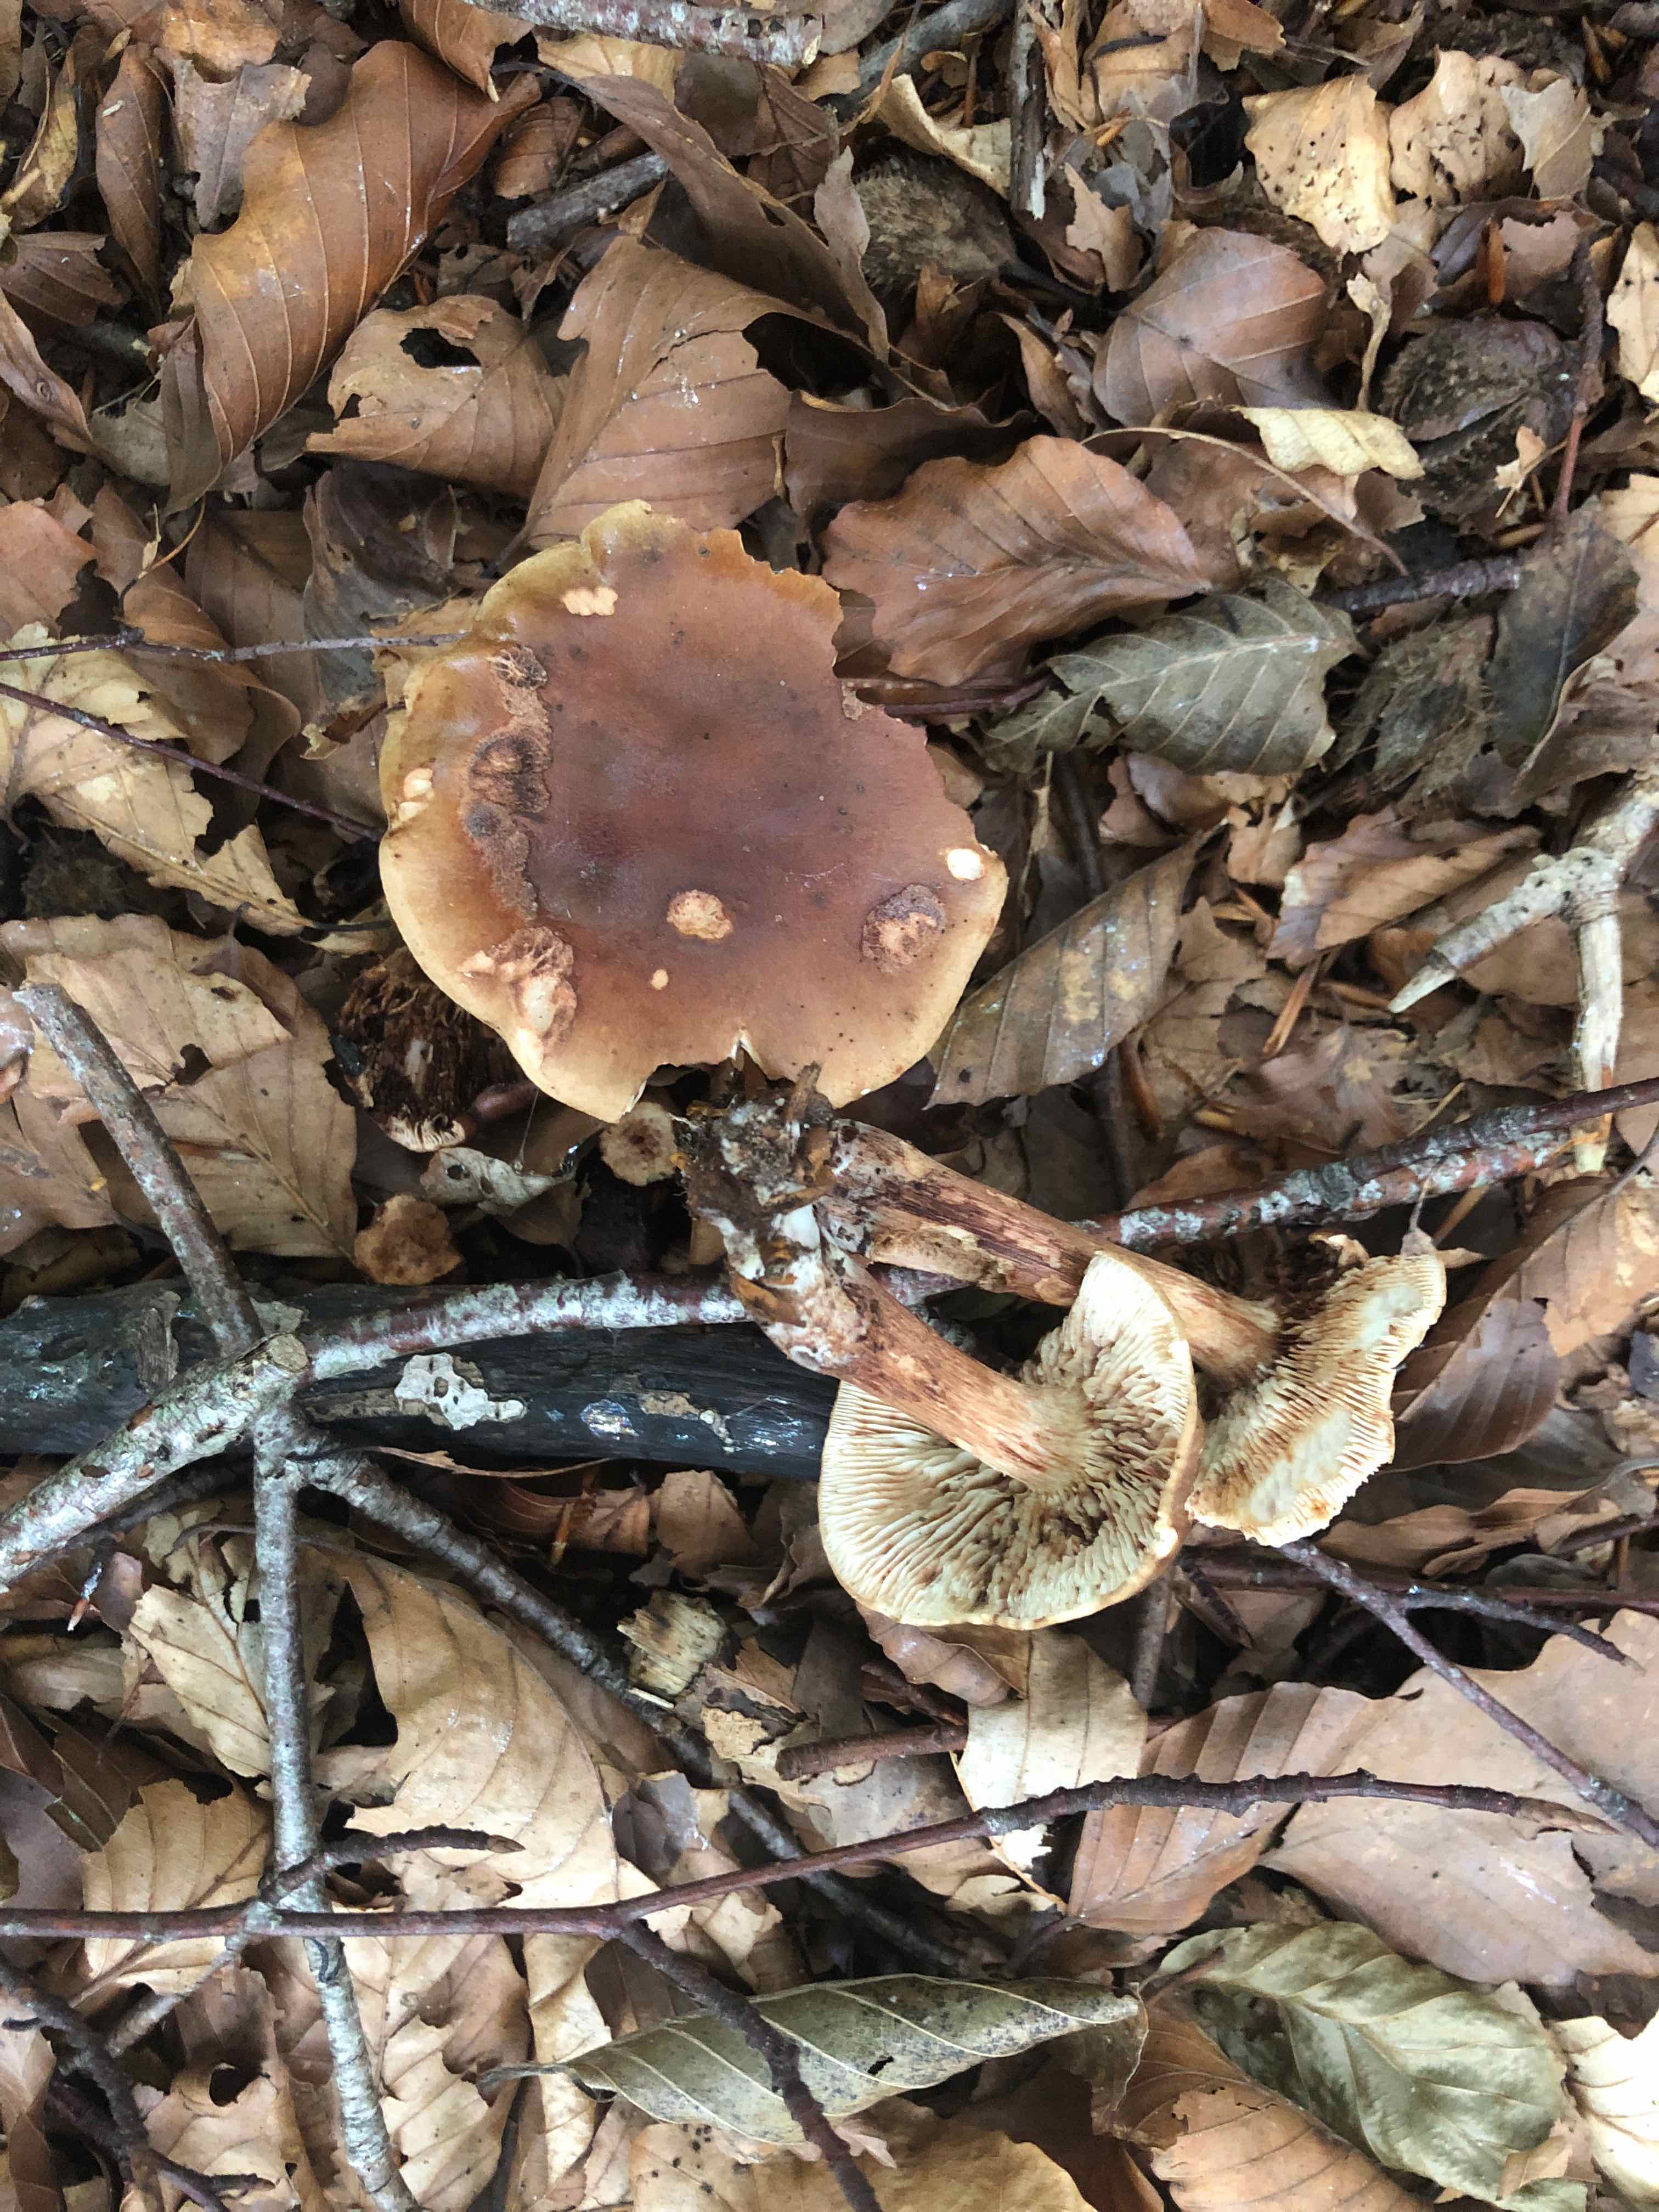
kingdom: Fungi
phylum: Basidiomycota
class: Agaricomycetes
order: Agaricales
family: Tricholomataceae
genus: Tricholoma
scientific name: Tricholoma ustale
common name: sveden ridderhat
